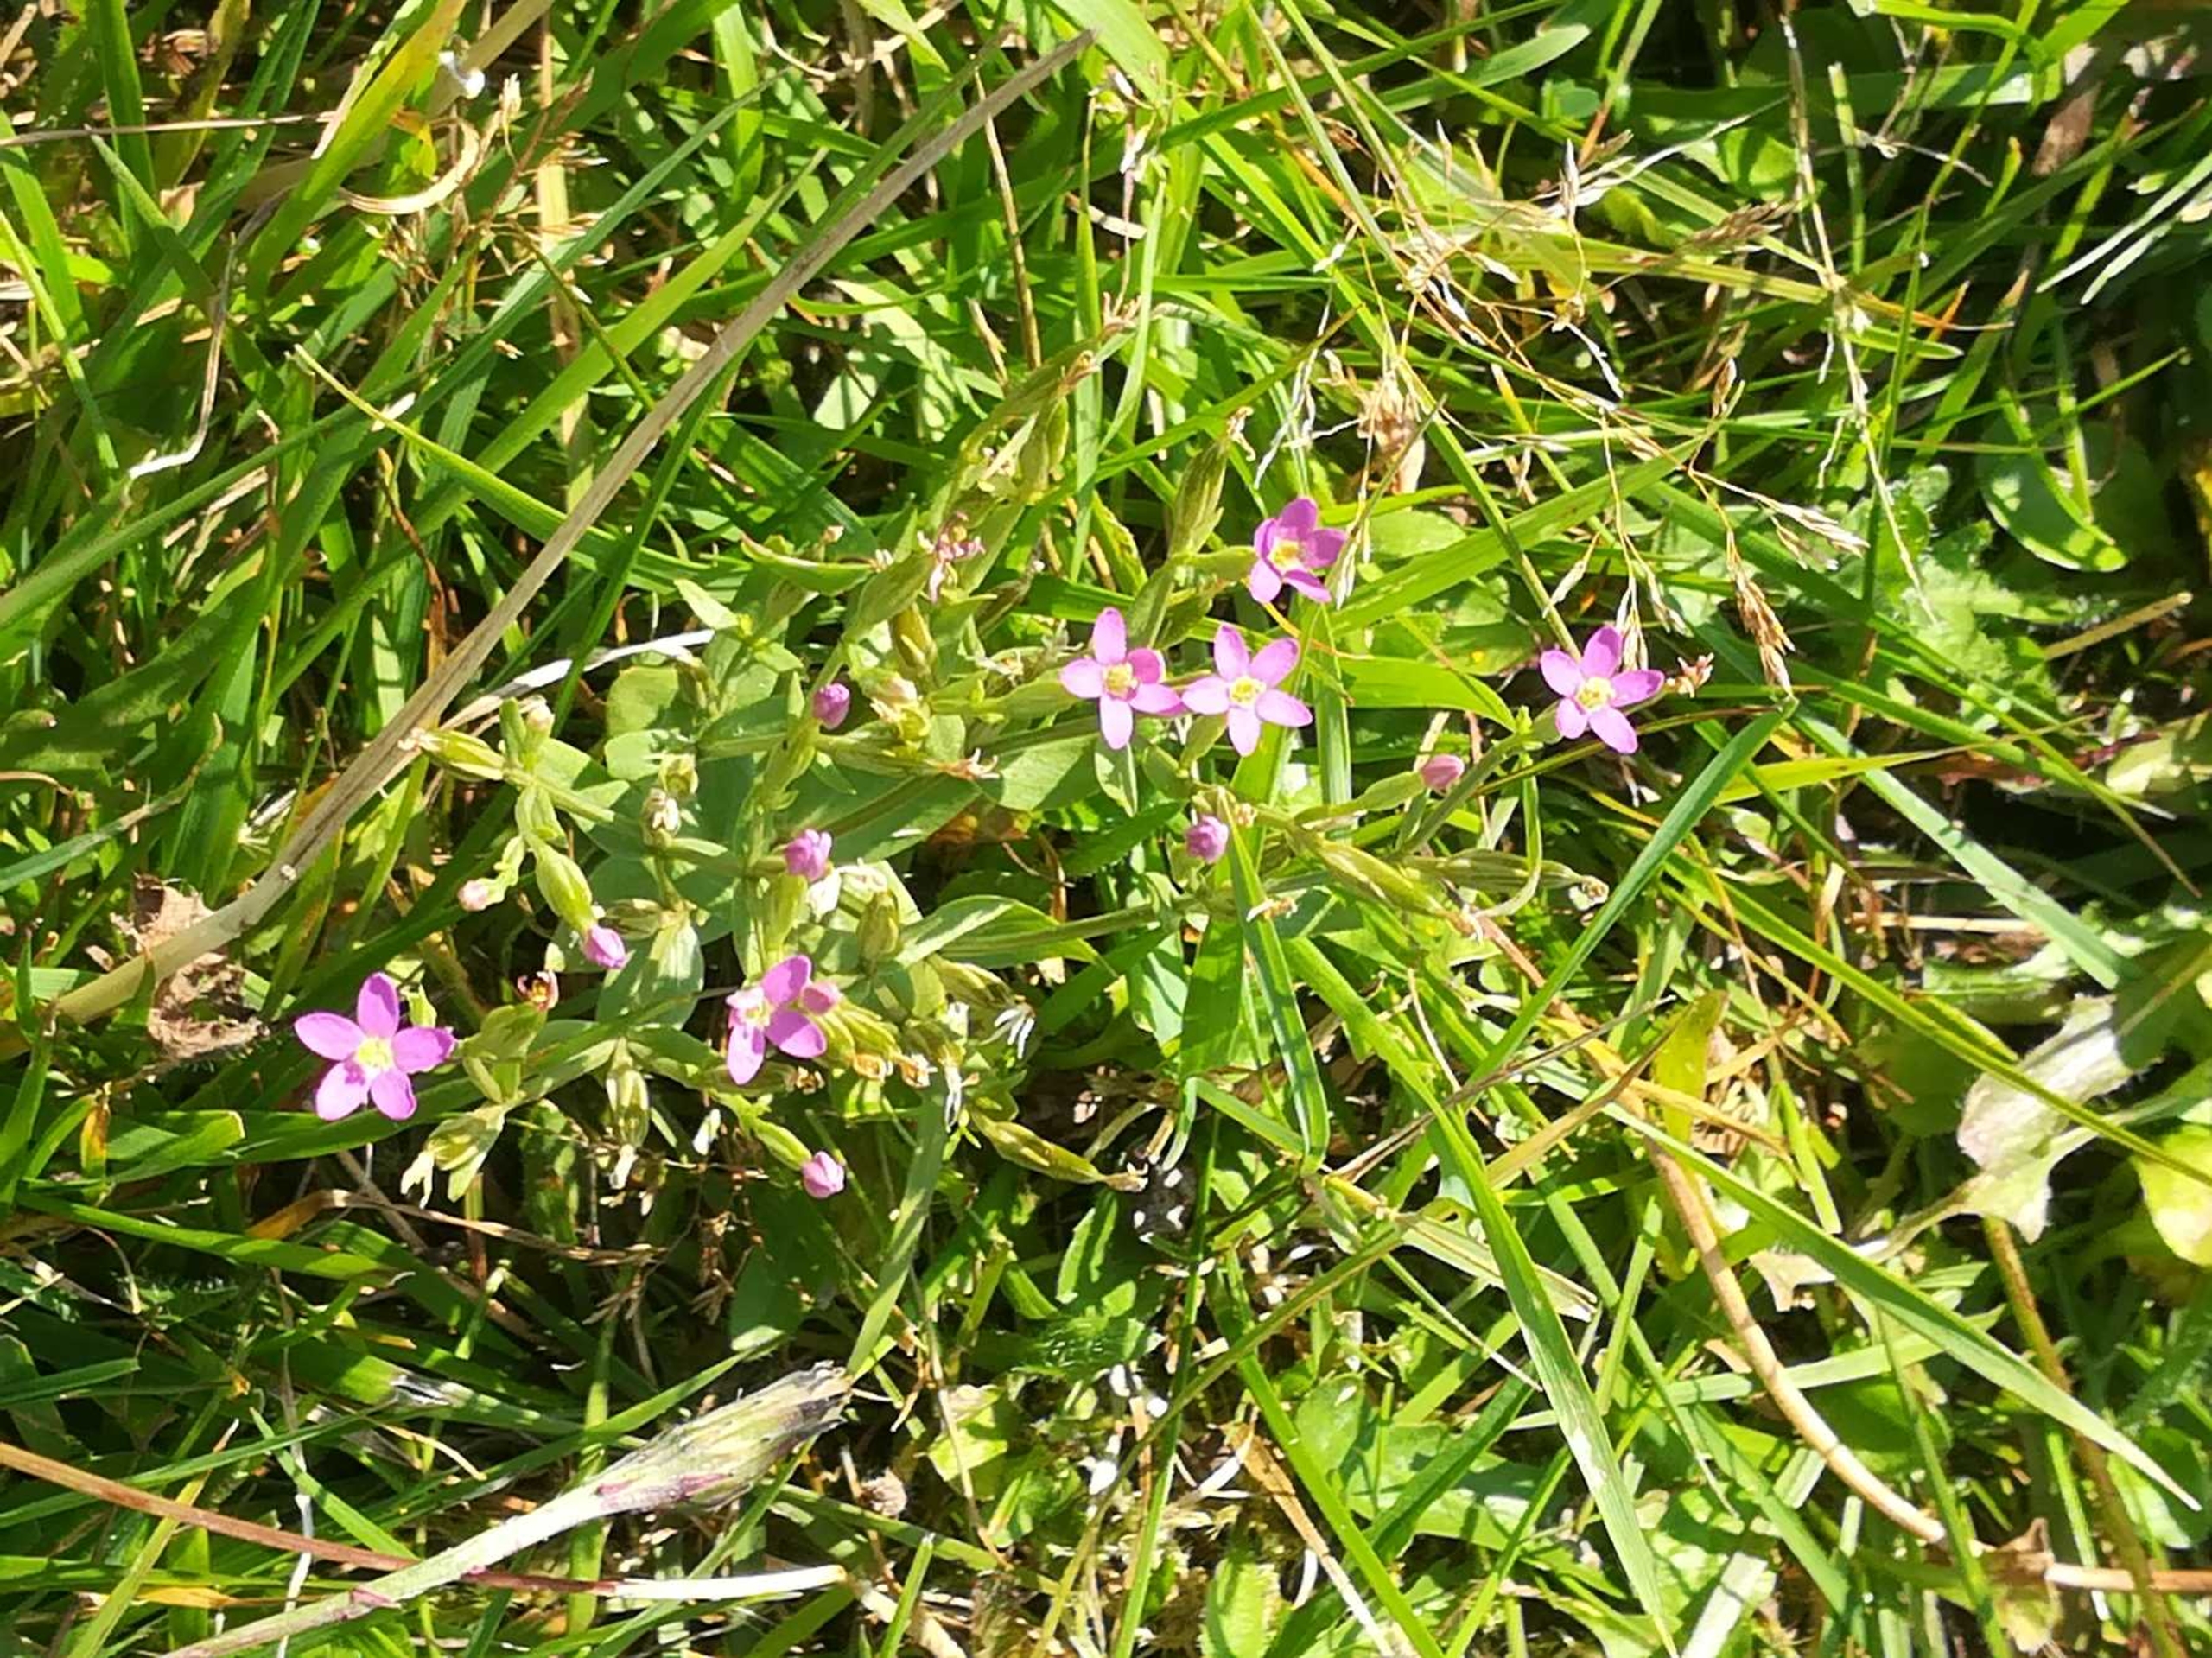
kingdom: Plantae
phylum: Tracheophyta
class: Magnoliopsida
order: Gentianales
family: Gentianaceae
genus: Centaurium
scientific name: Centaurium pulchellum
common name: Liden tusindgylden
